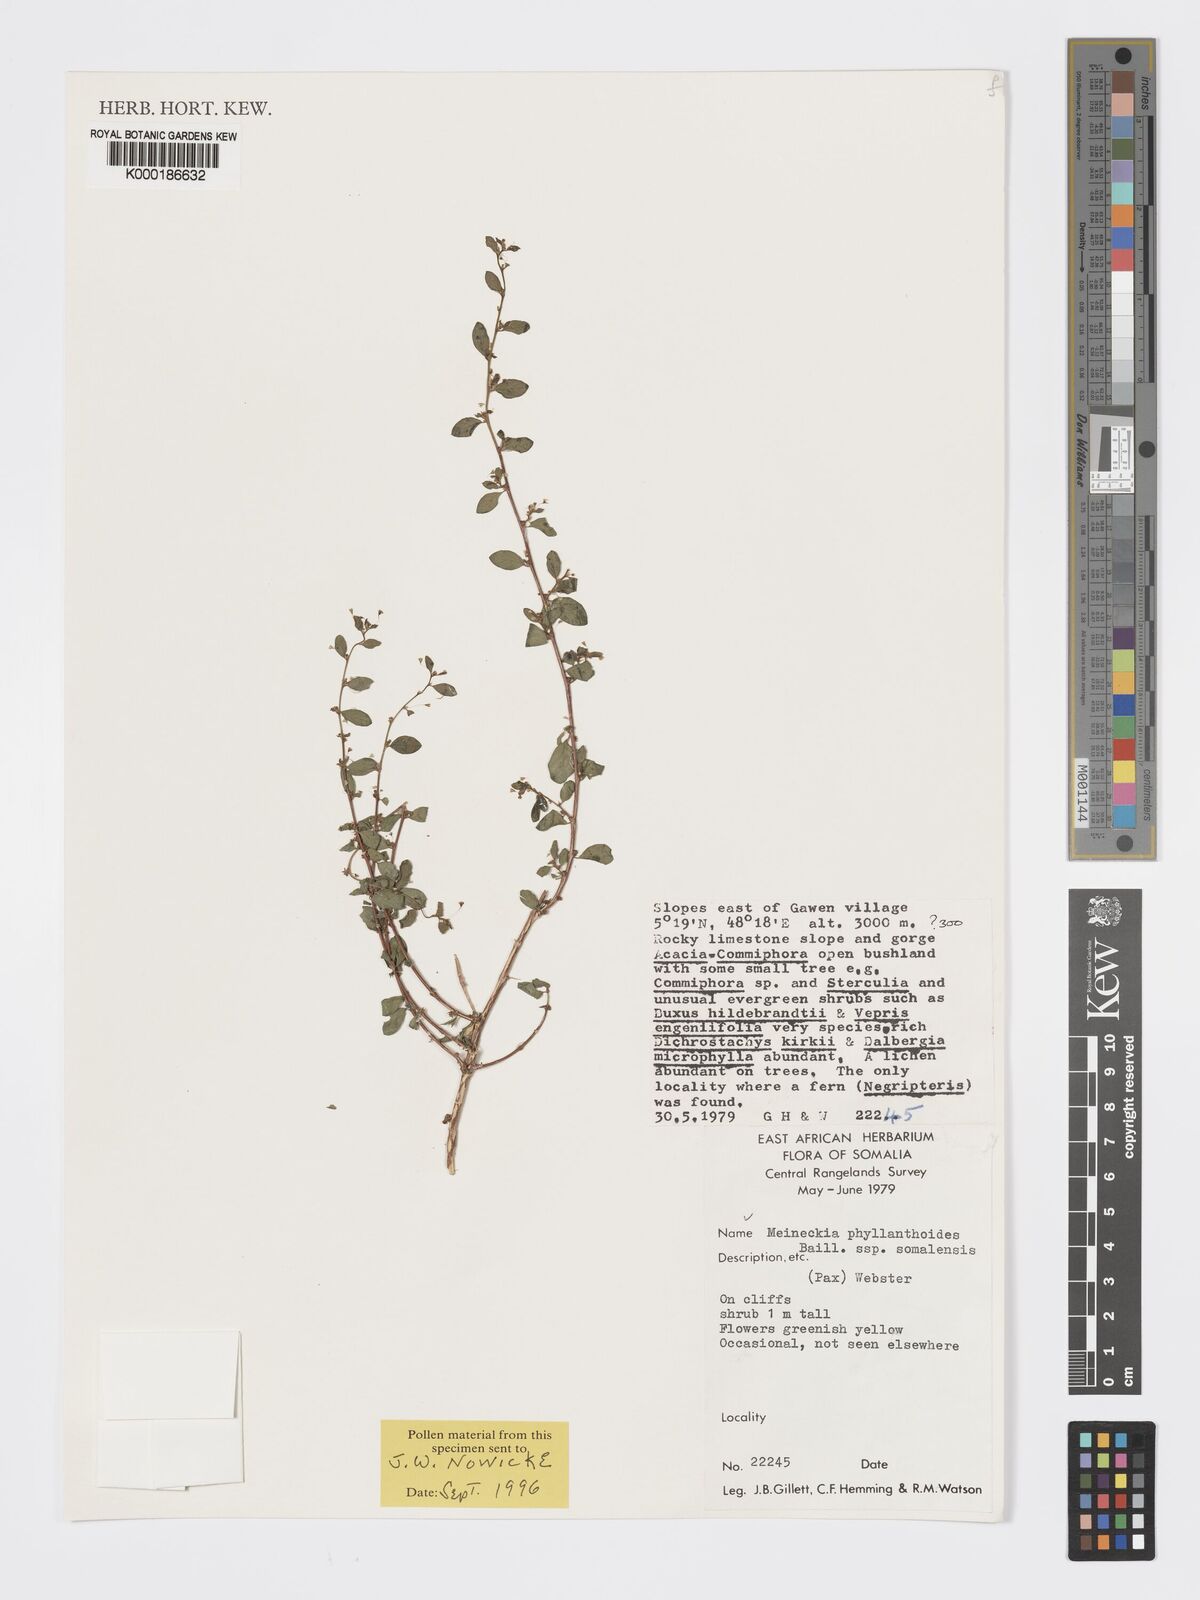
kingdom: Plantae
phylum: Tracheophyta
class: Magnoliopsida
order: Malpighiales
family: Phyllanthaceae
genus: Meineckia
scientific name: Meineckia phyllanthoides
